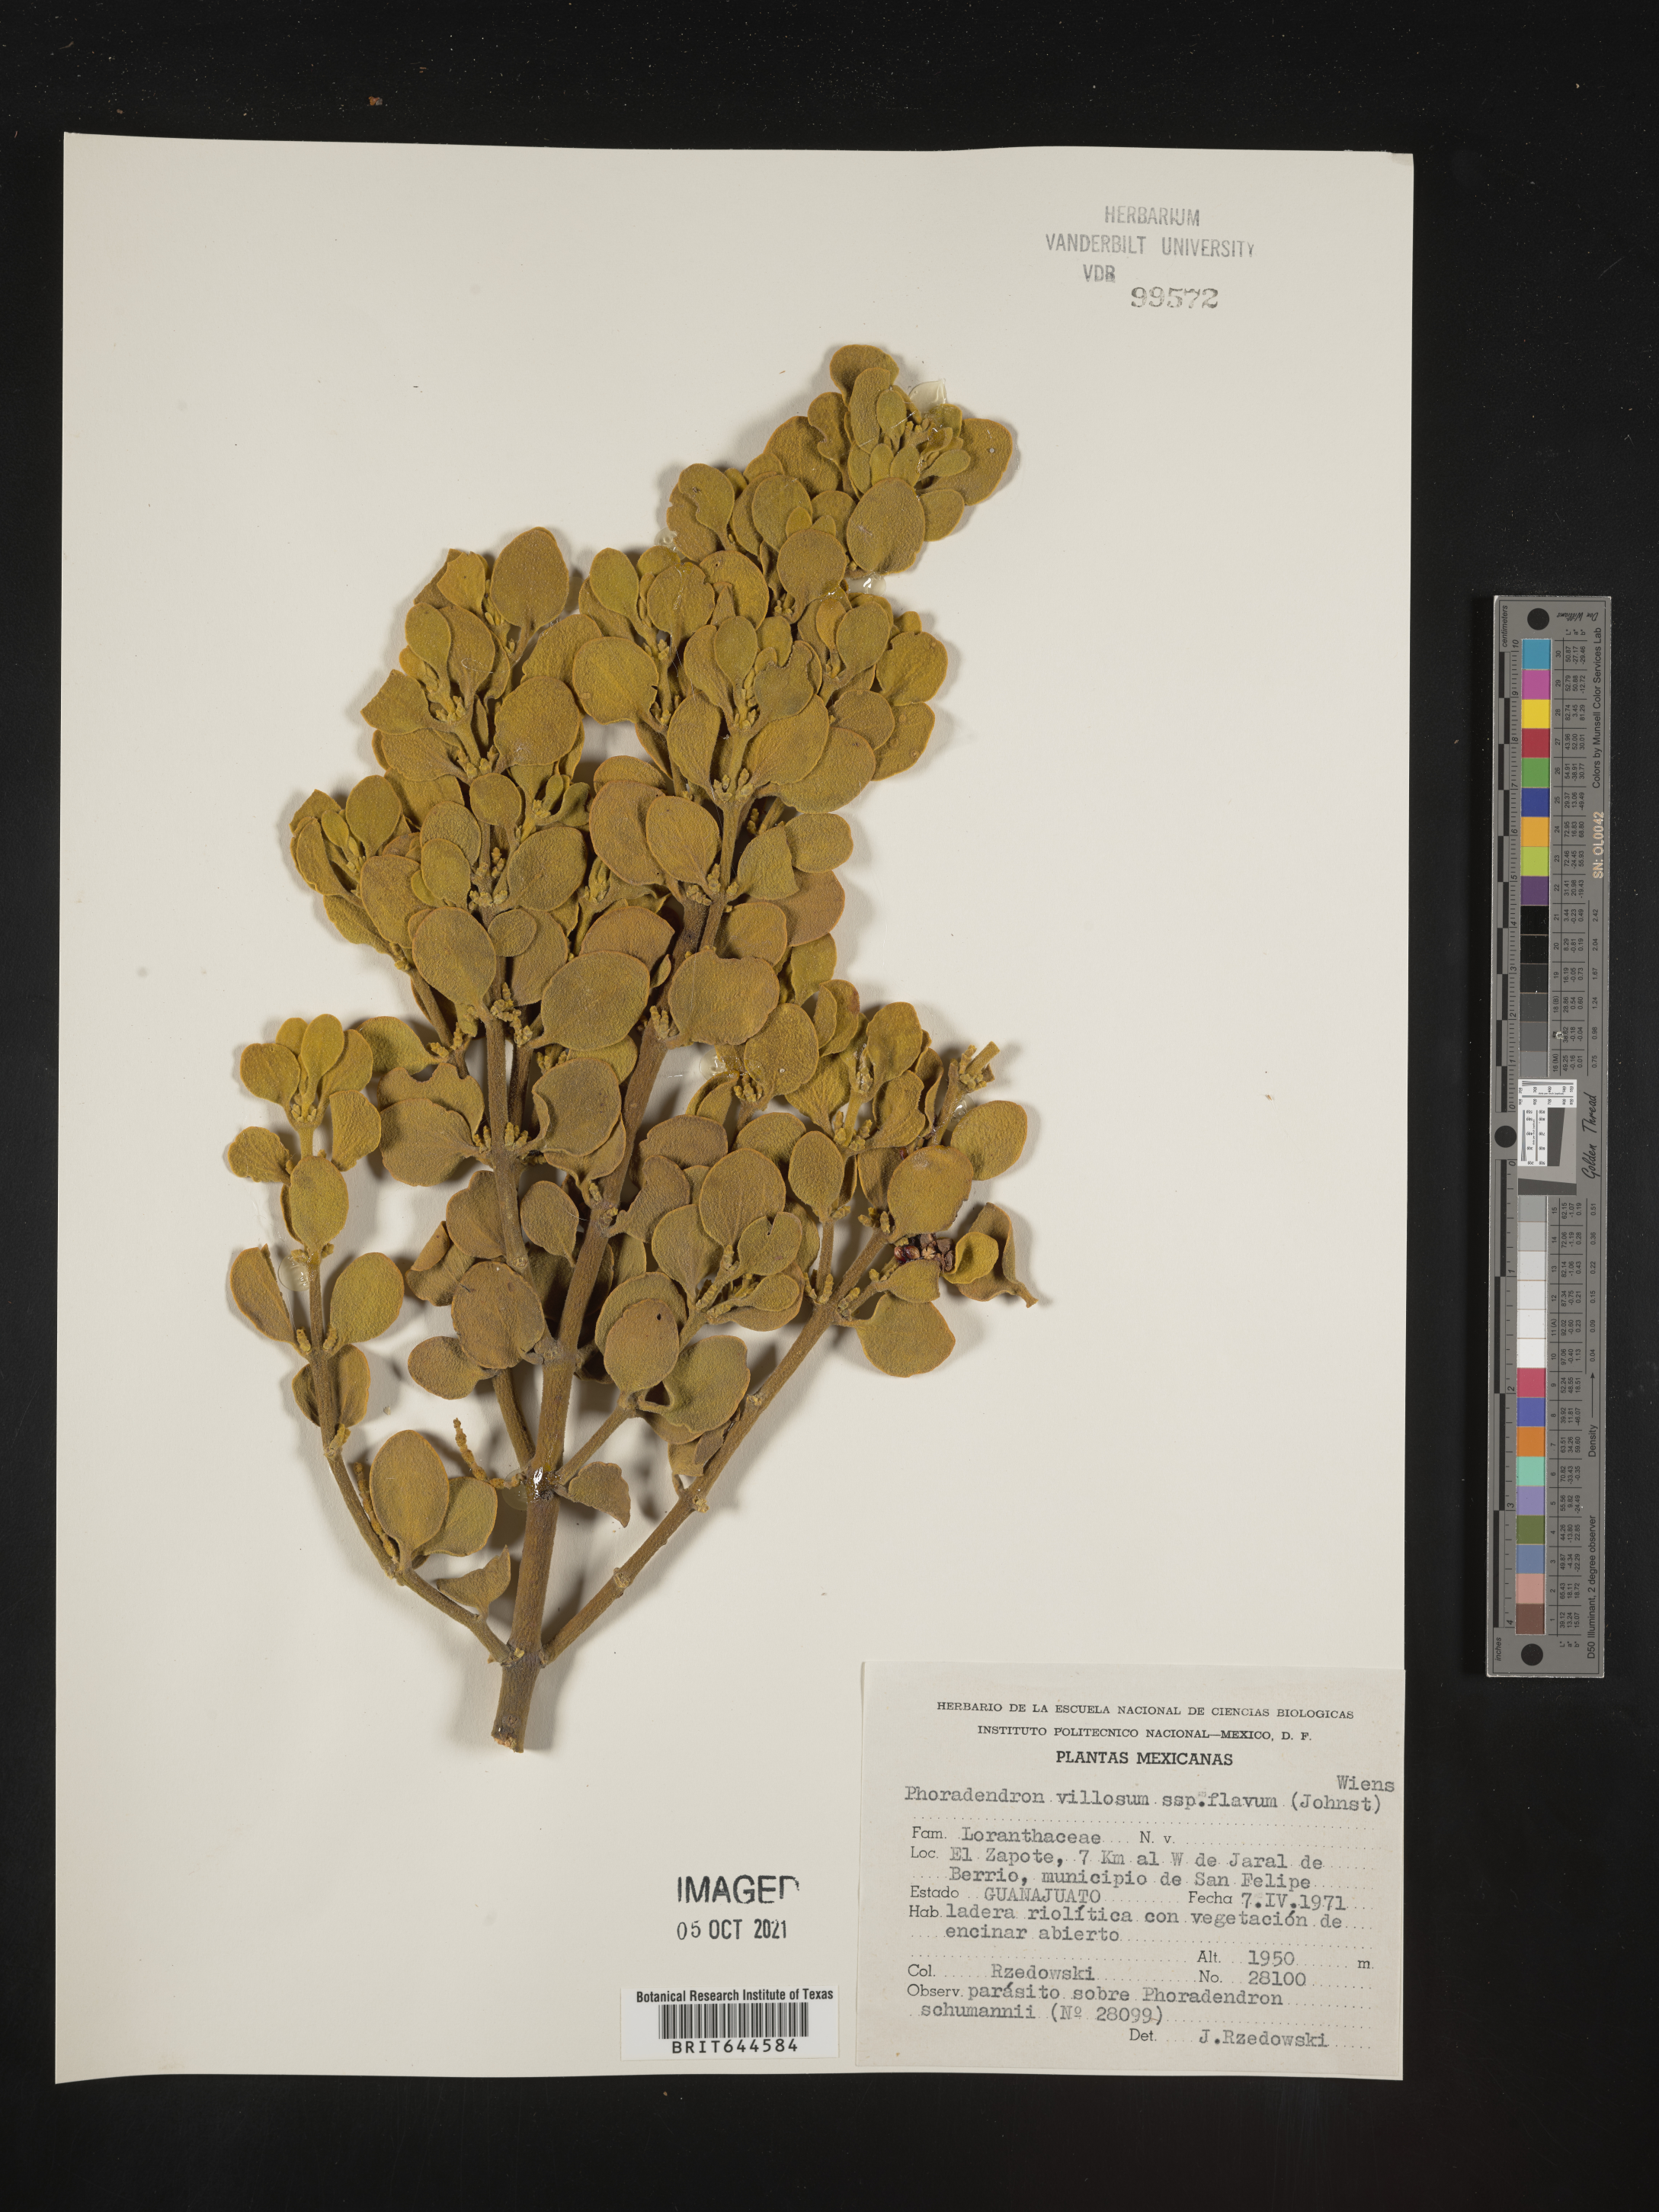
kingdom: Plantae
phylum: Tracheophyta
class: Magnoliopsida
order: Santalales
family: Viscaceae
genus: Phoradendron
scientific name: Phoradendron
